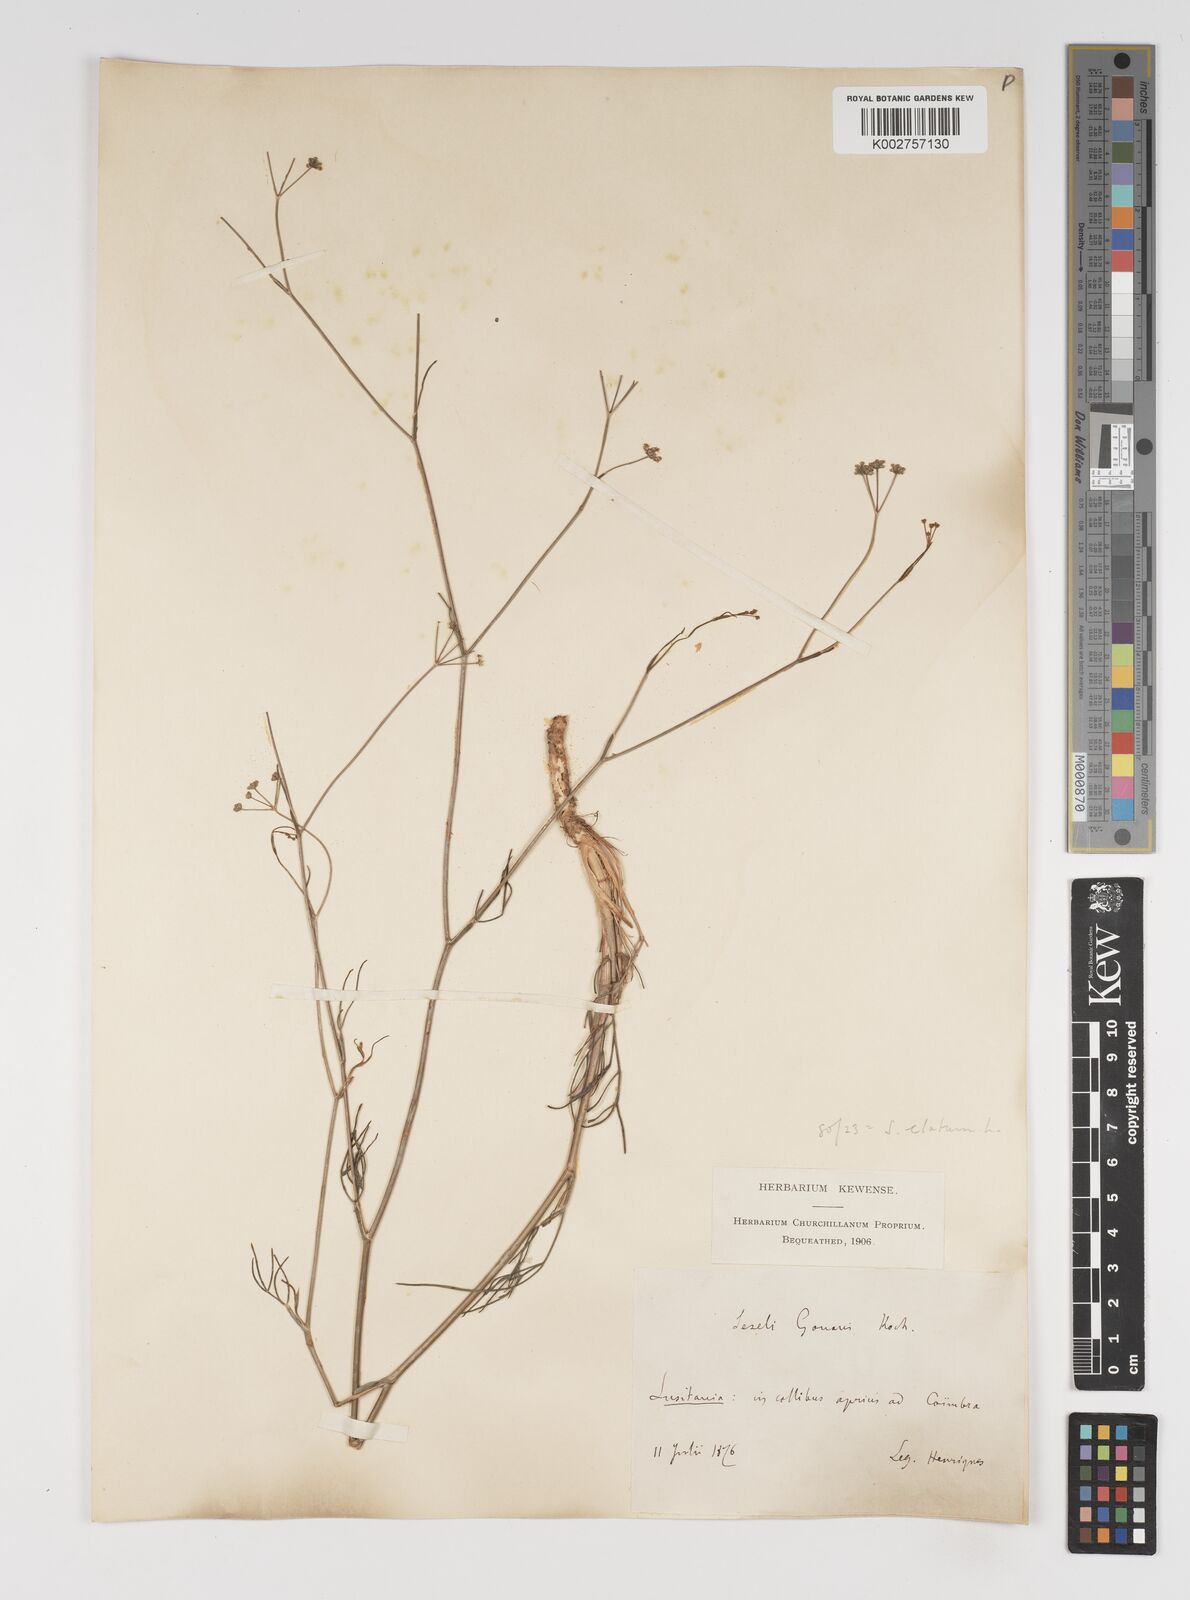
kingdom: Plantae
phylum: Tracheophyta
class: Magnoliopsida
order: Apiales
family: Apiaceae
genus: Seseli
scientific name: Seseli longifolium
